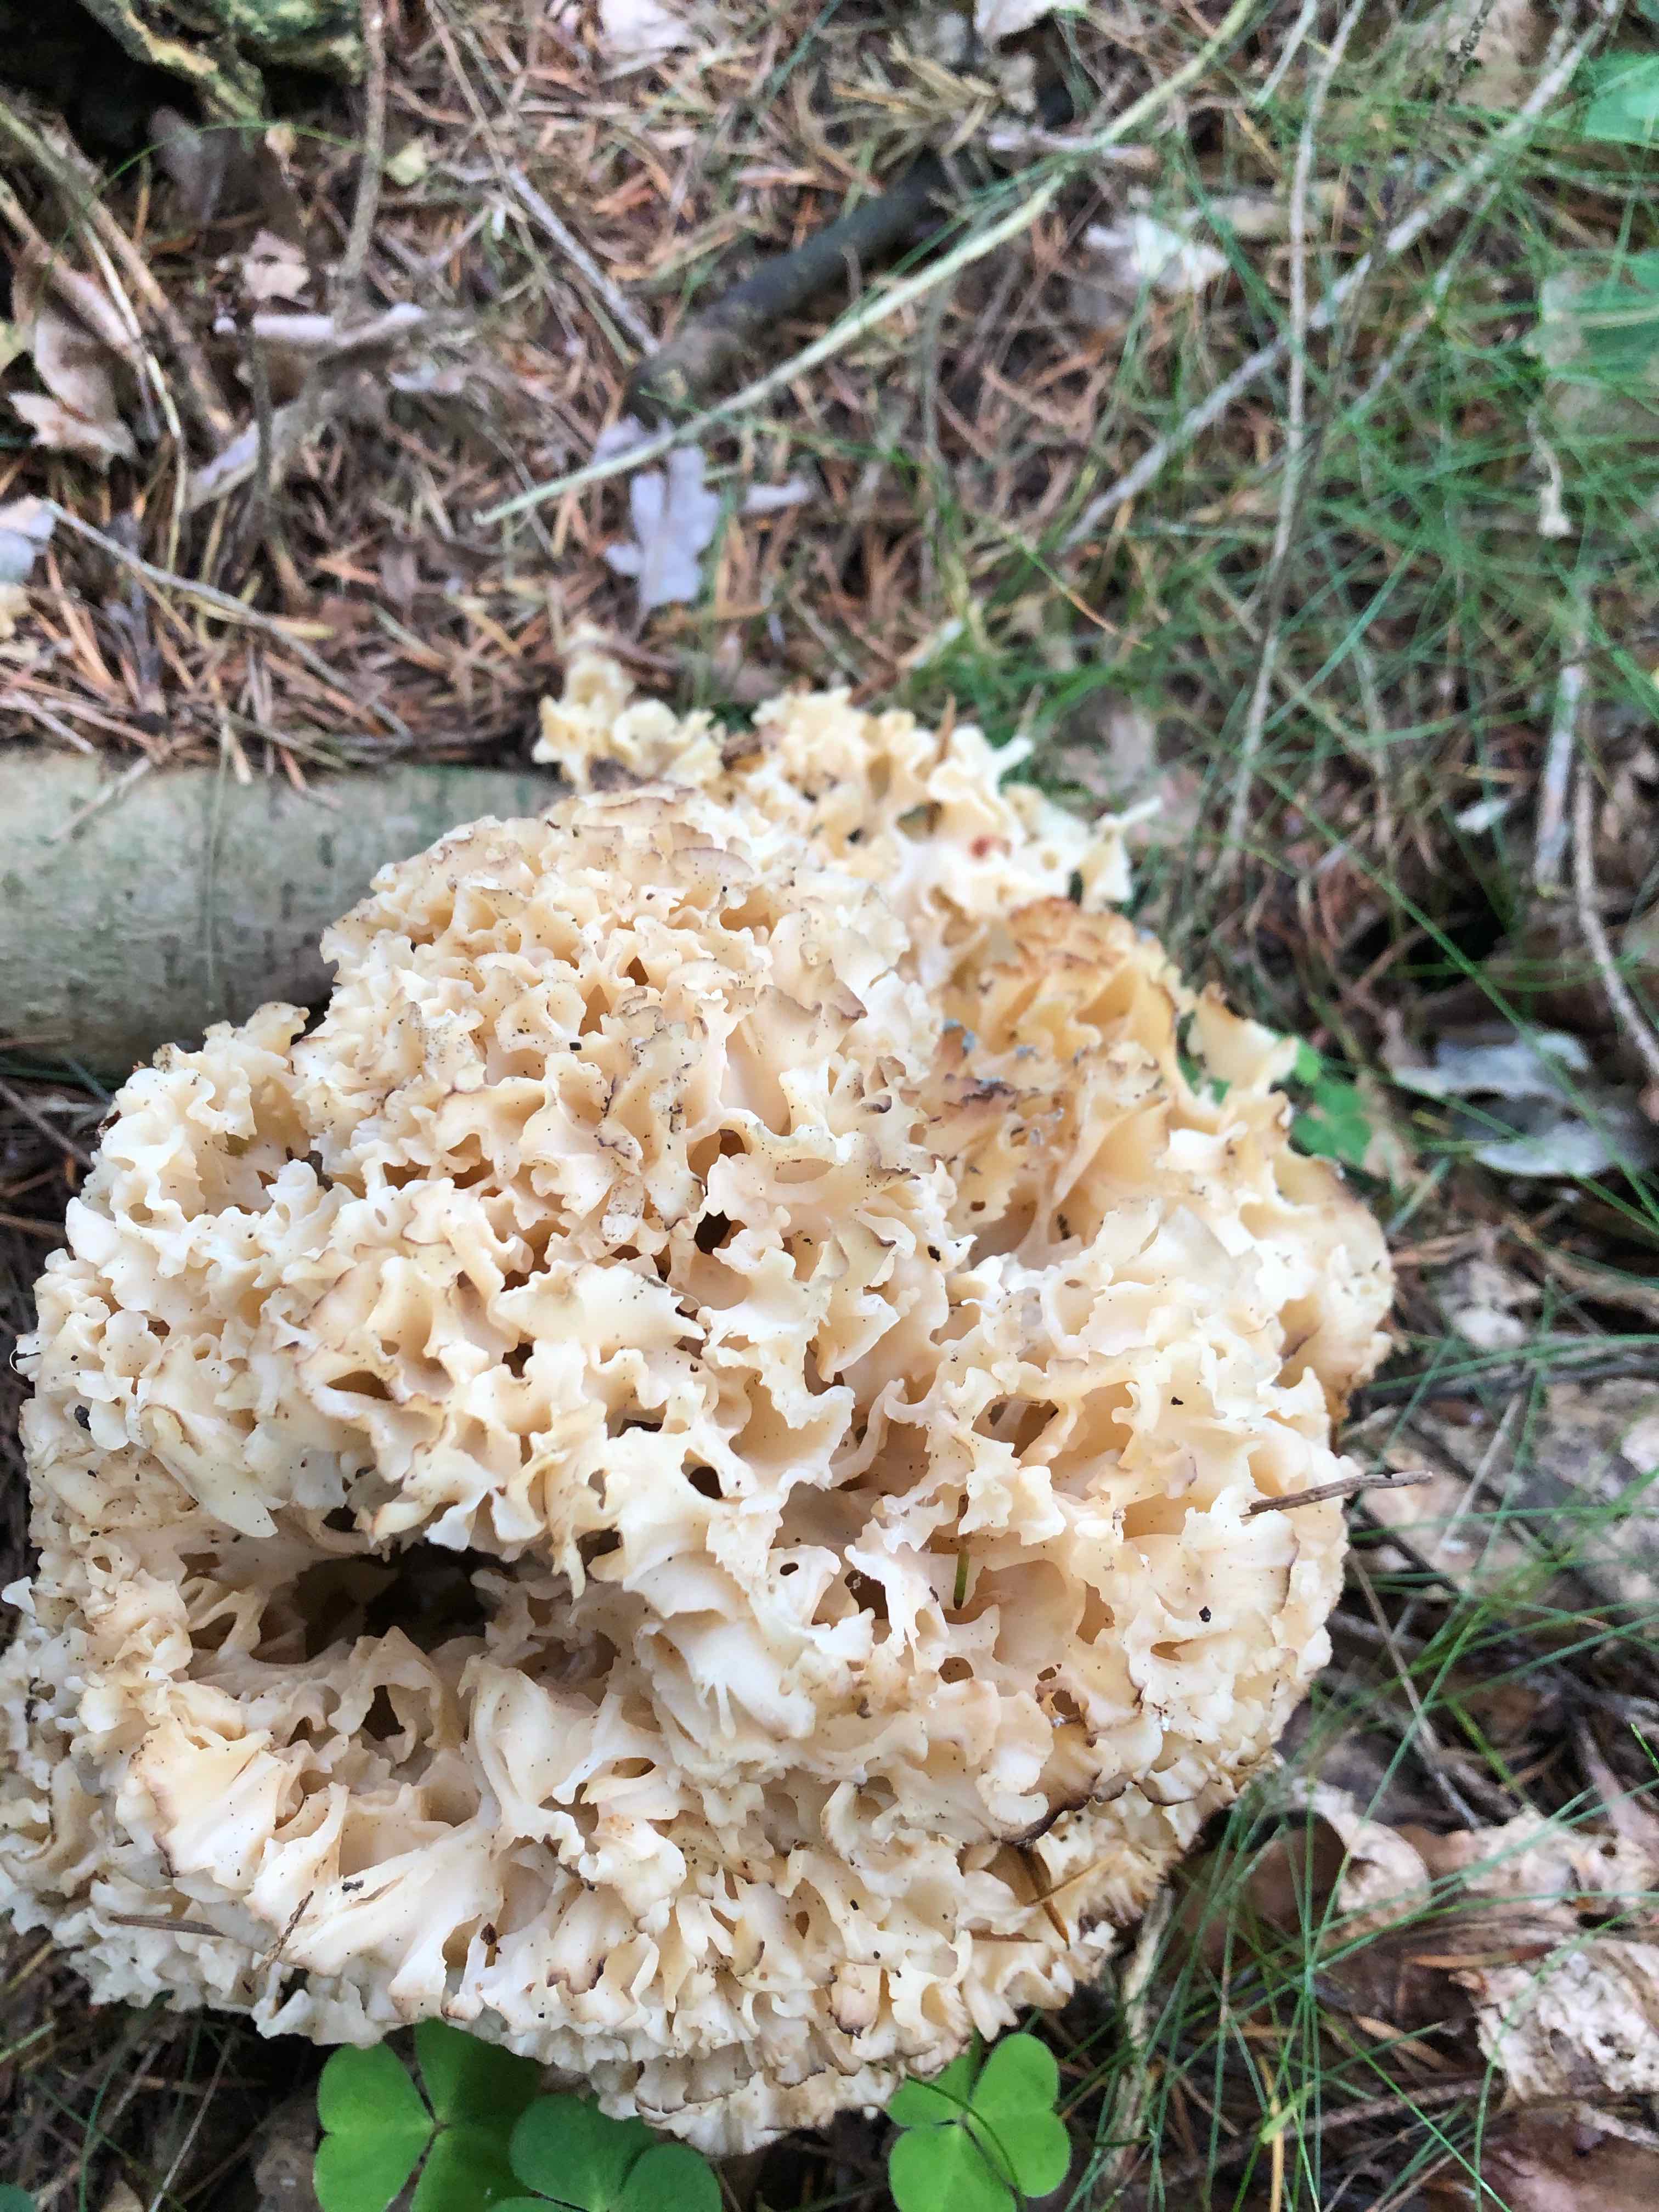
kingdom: Fungi
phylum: Basidiomycota
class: Agaricomycetes
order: Polyporales
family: Sparassidaceae
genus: Sparassis
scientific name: Sparassis crispa
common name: kruset blomkålssvamp
